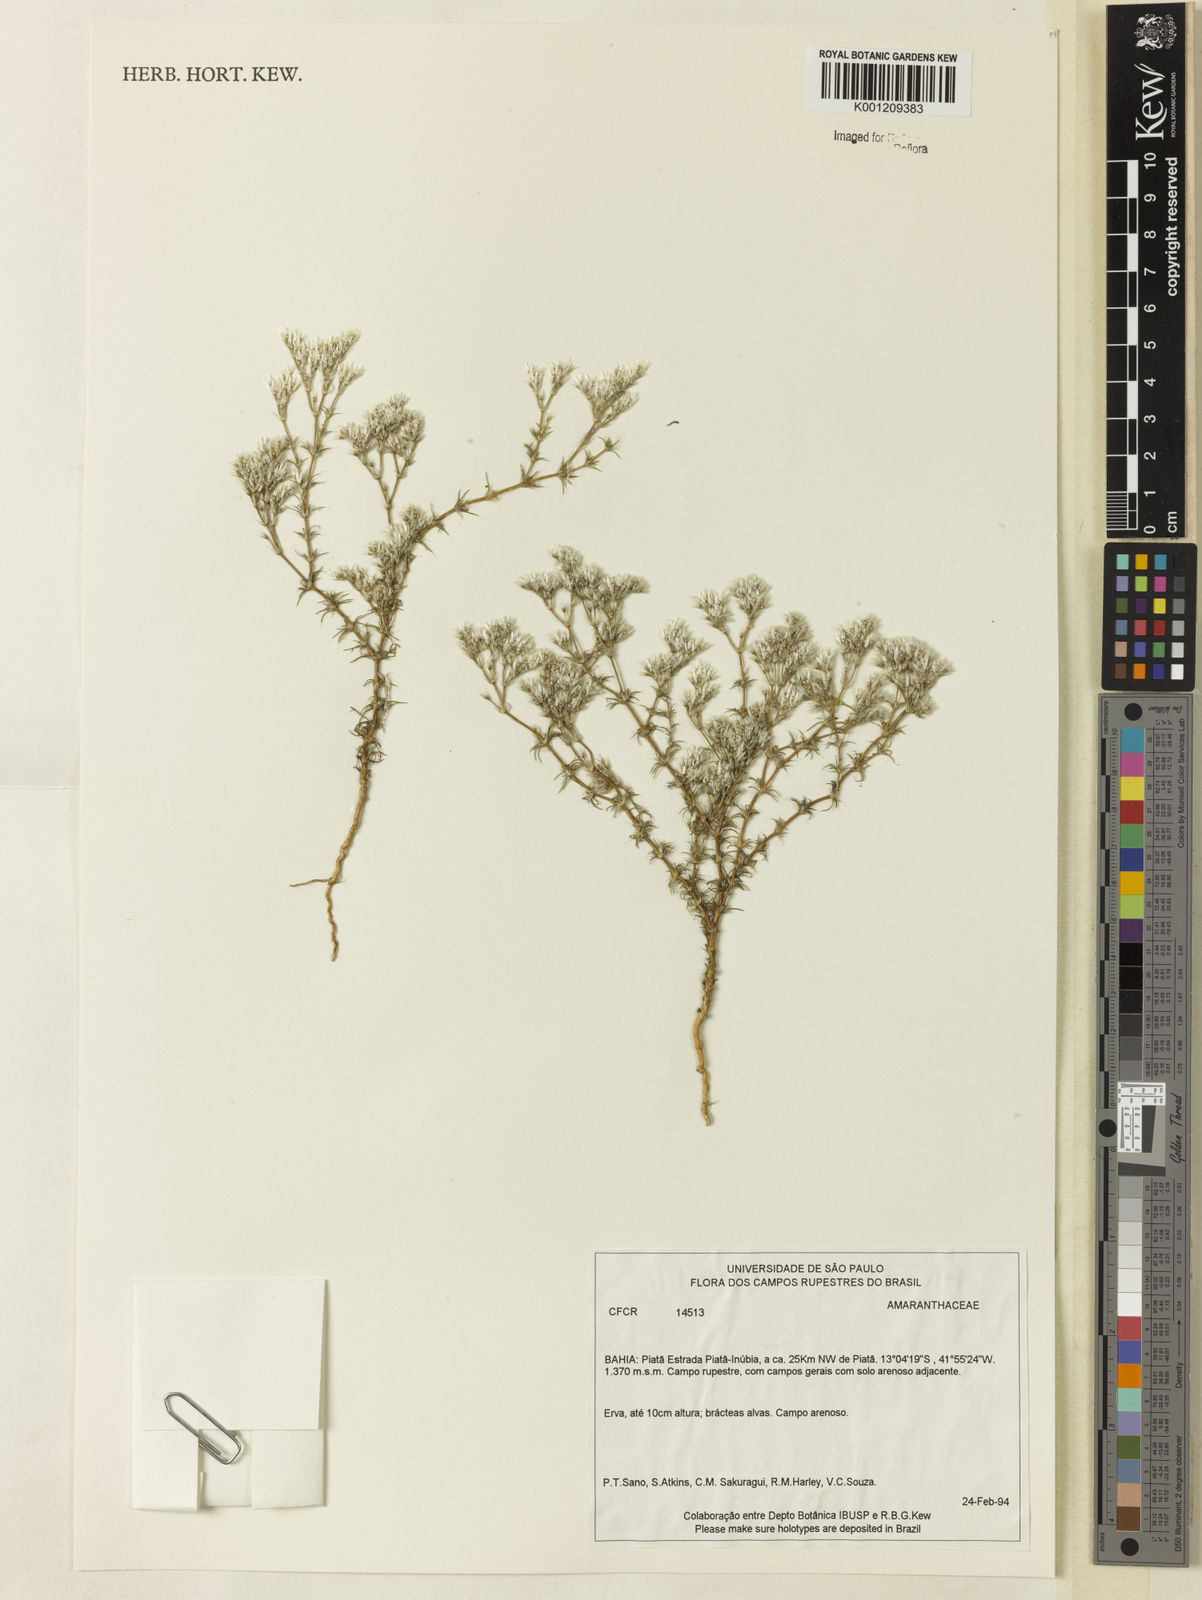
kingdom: Plantae
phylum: Tracheophyta
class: Magnoliopsida
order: Caryophyllales
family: Amaranthaceae
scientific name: Amaranthaceae
